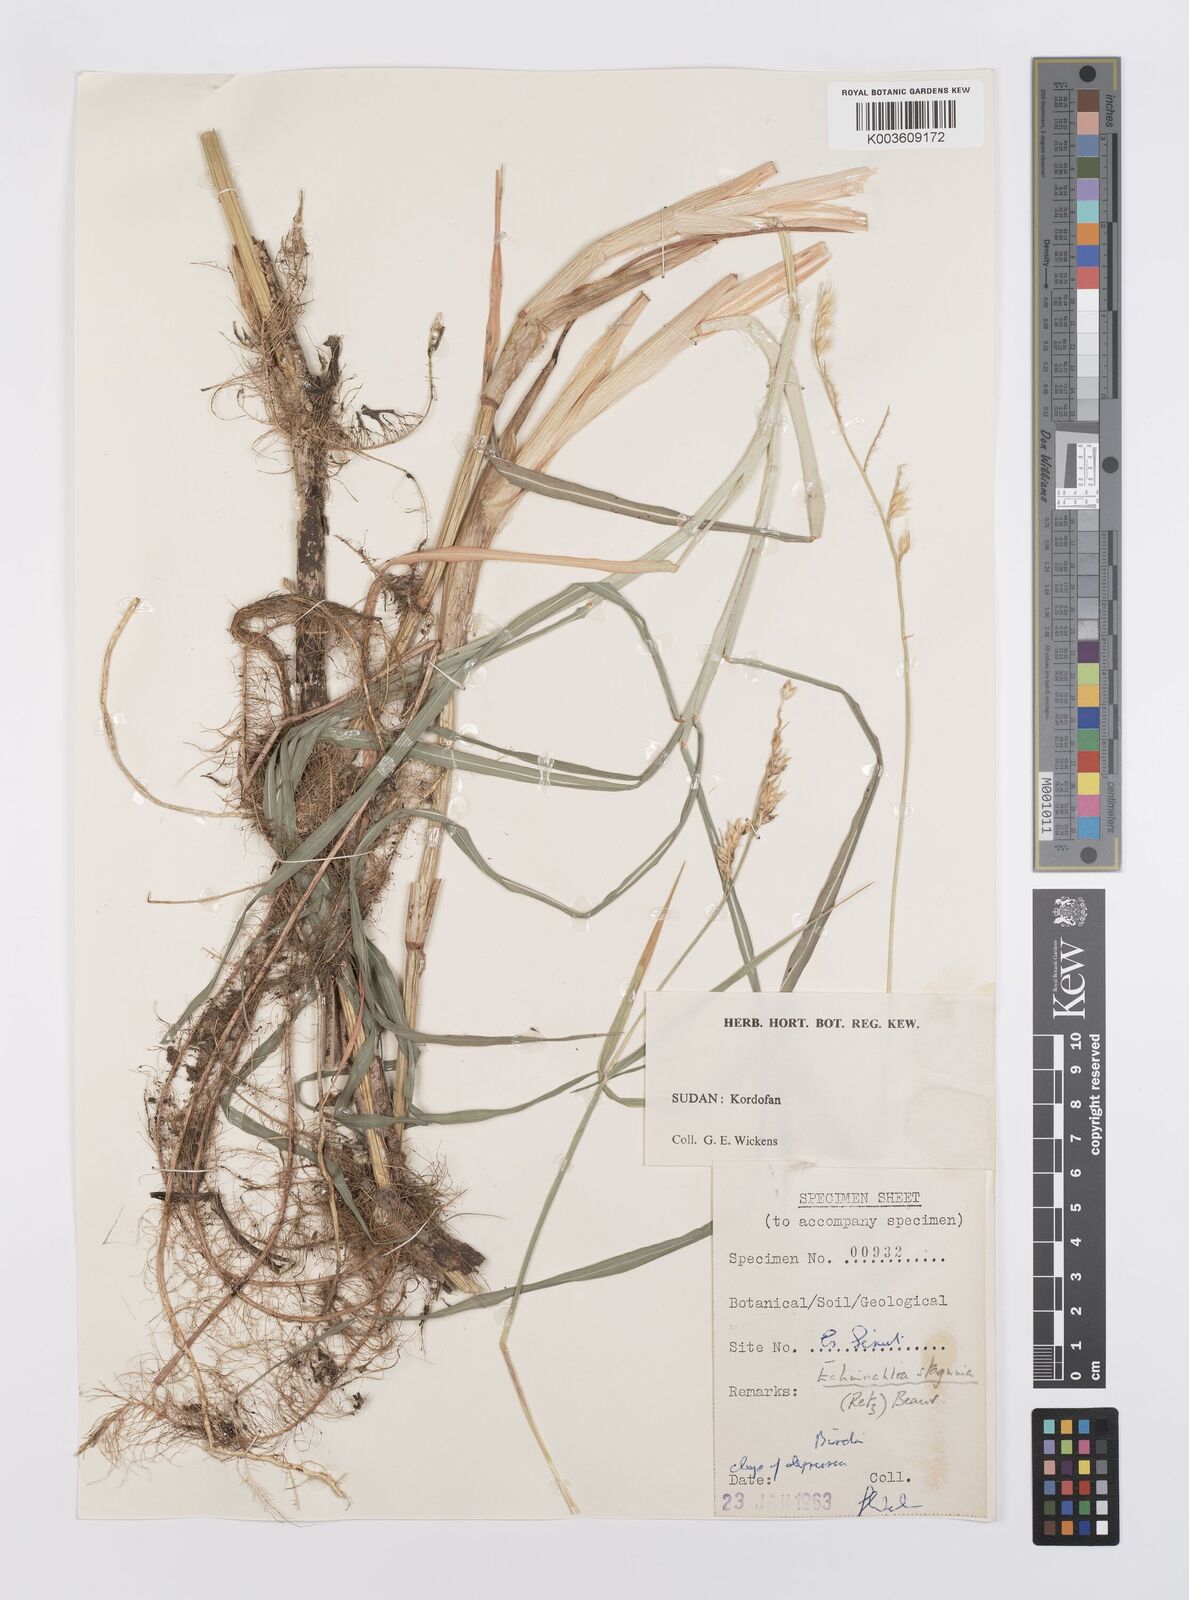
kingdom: Plantae
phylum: Tracheophyta
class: Liliopsida
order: Poales
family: Poaceae
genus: Echinochloa
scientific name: Echinochloa stagnina
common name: Burgu grass
